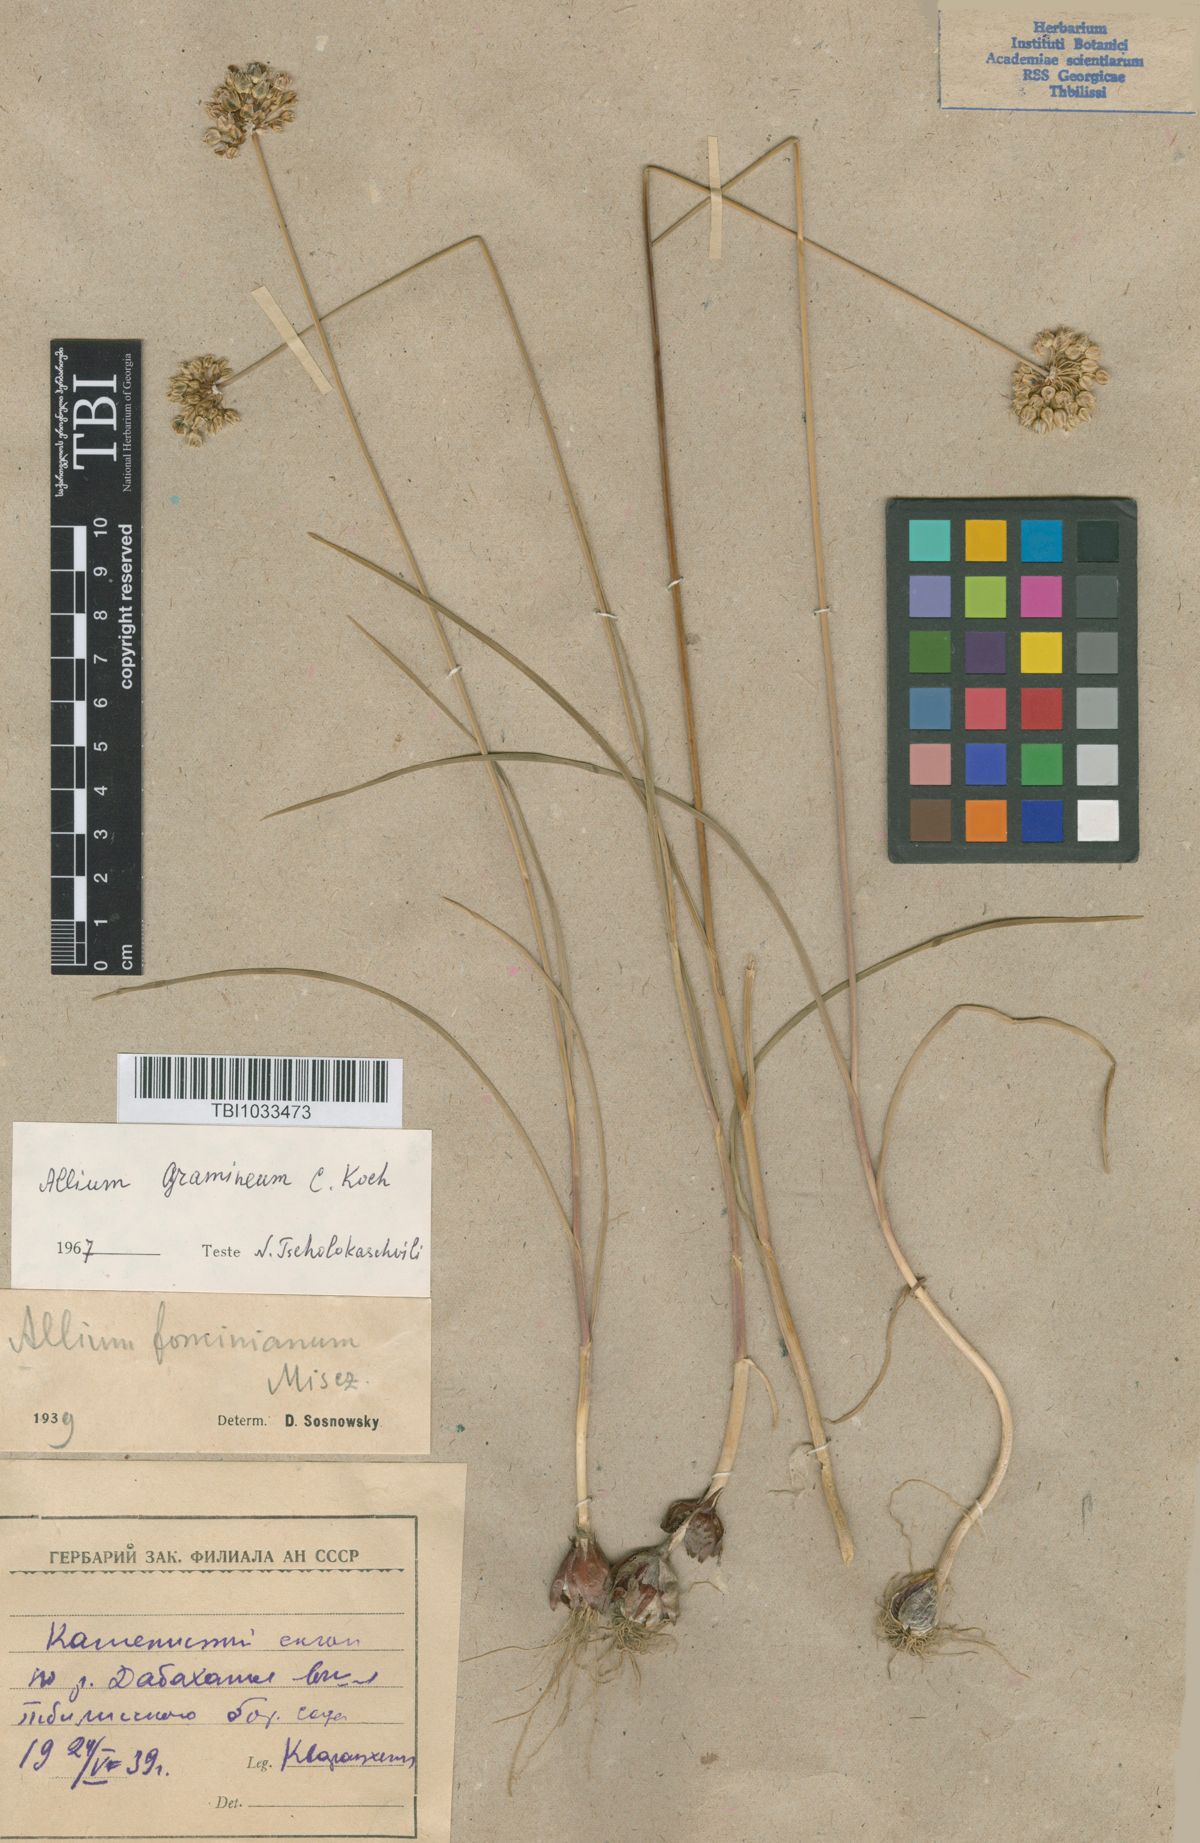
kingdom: Plantae
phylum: Tracheophyta
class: Liliopsida
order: Asparagales
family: Amaryllidaceae
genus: Allium
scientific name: Allium gramineum
